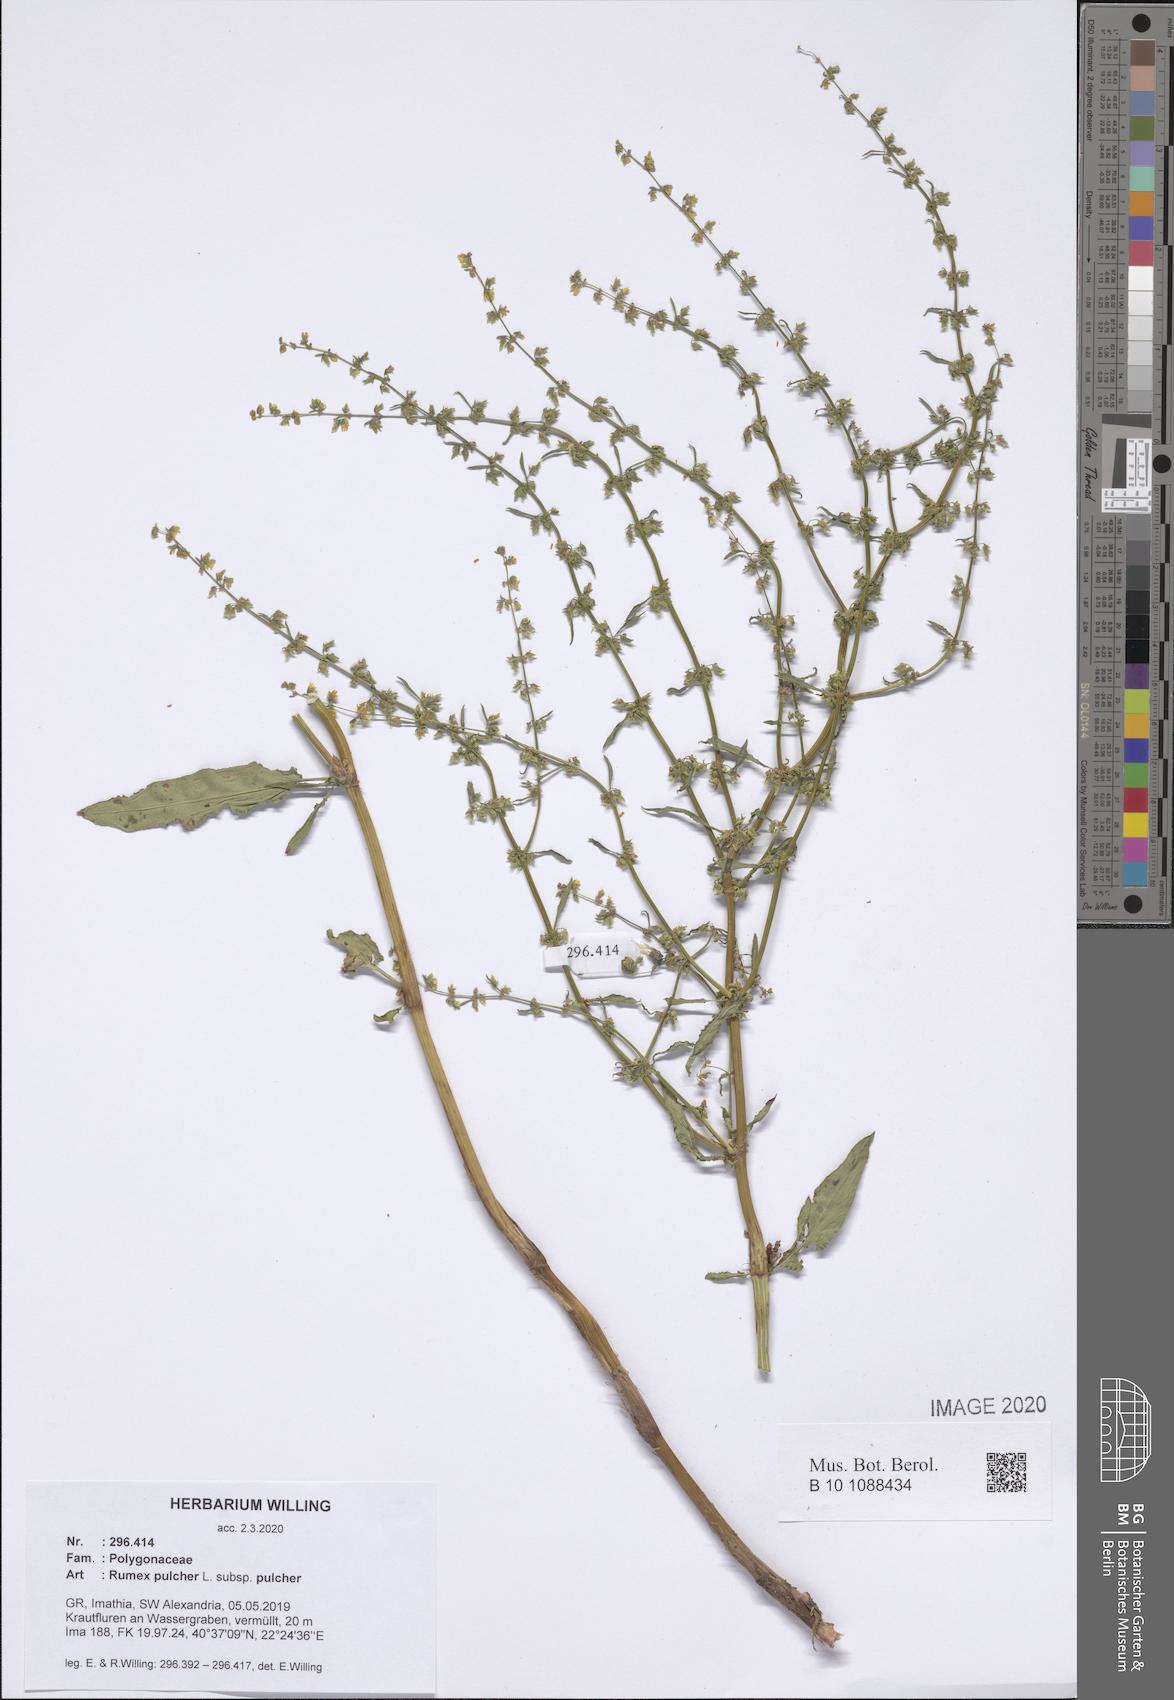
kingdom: Plantae
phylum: Tracheophyta
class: Magnoliopsida
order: Caryophyllales
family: Polygonaceae
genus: Rumex
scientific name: Rumex pulcher
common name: Fiddle dock
